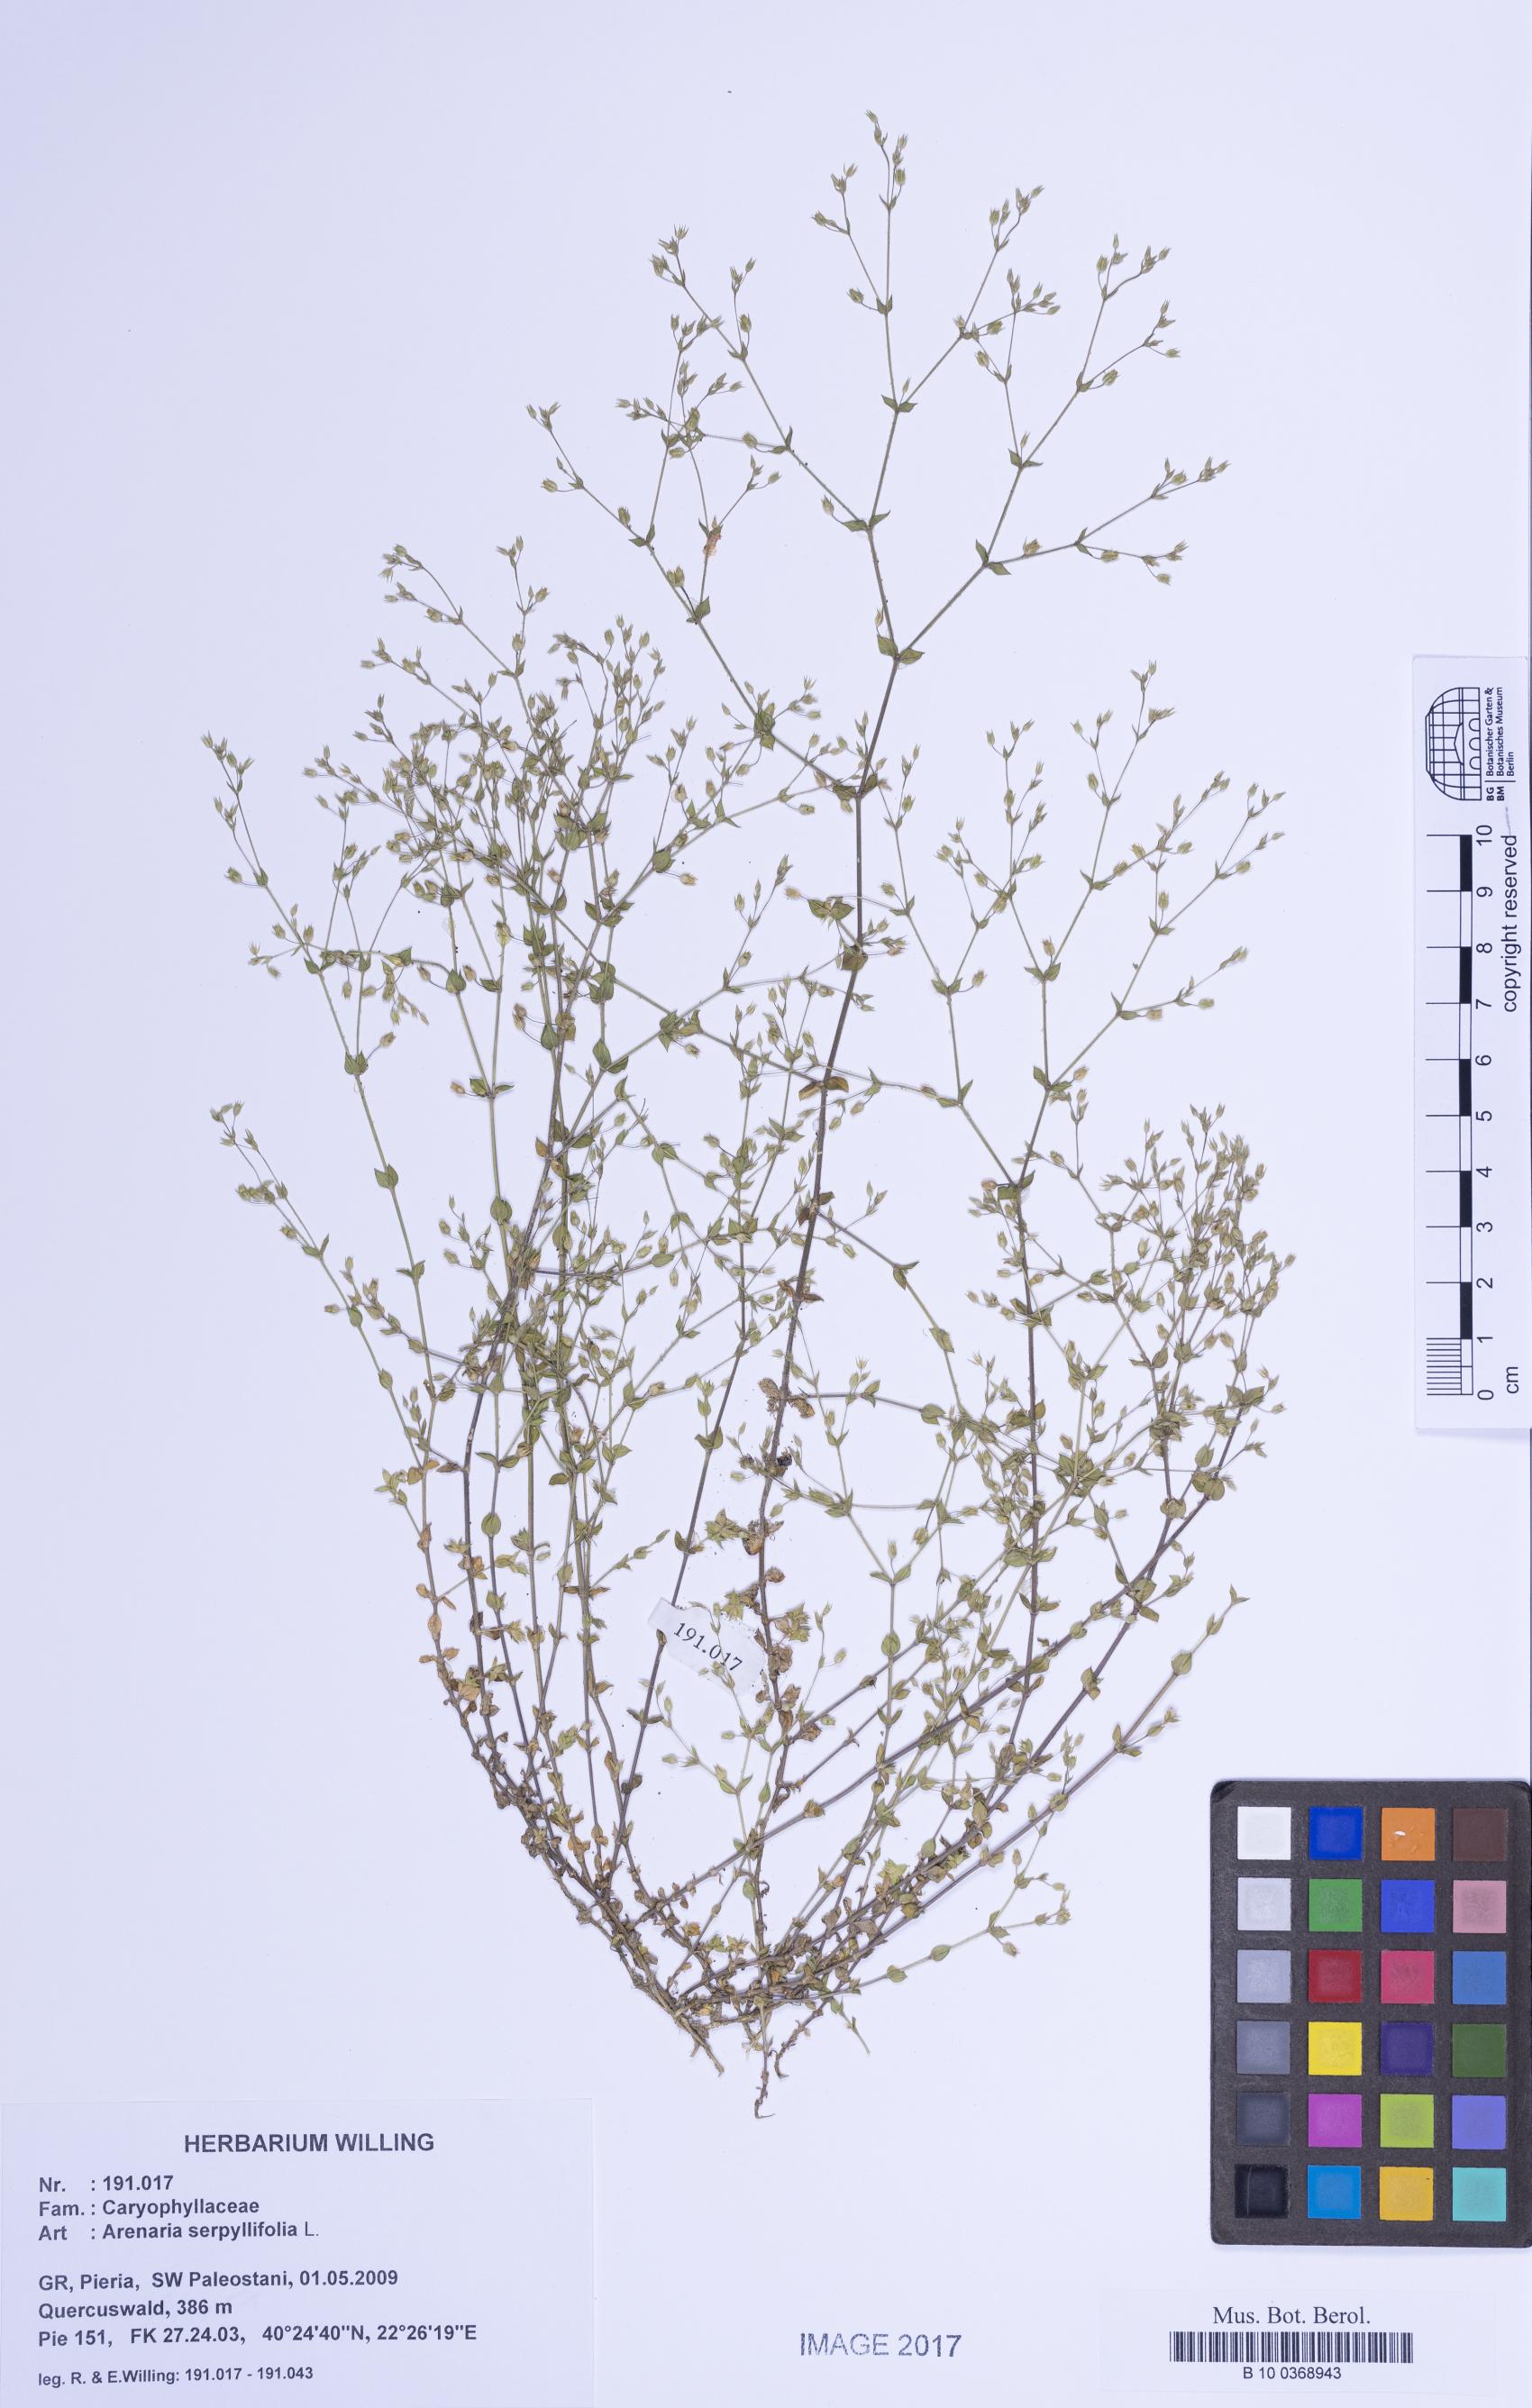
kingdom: Plantae
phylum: Tracheophyta
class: Magnoliopsida
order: Caryophyllales
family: Caryophyllaceae
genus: Arenaria
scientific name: Arenaria serpyllifolia
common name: Thyme-leaved sandwort
